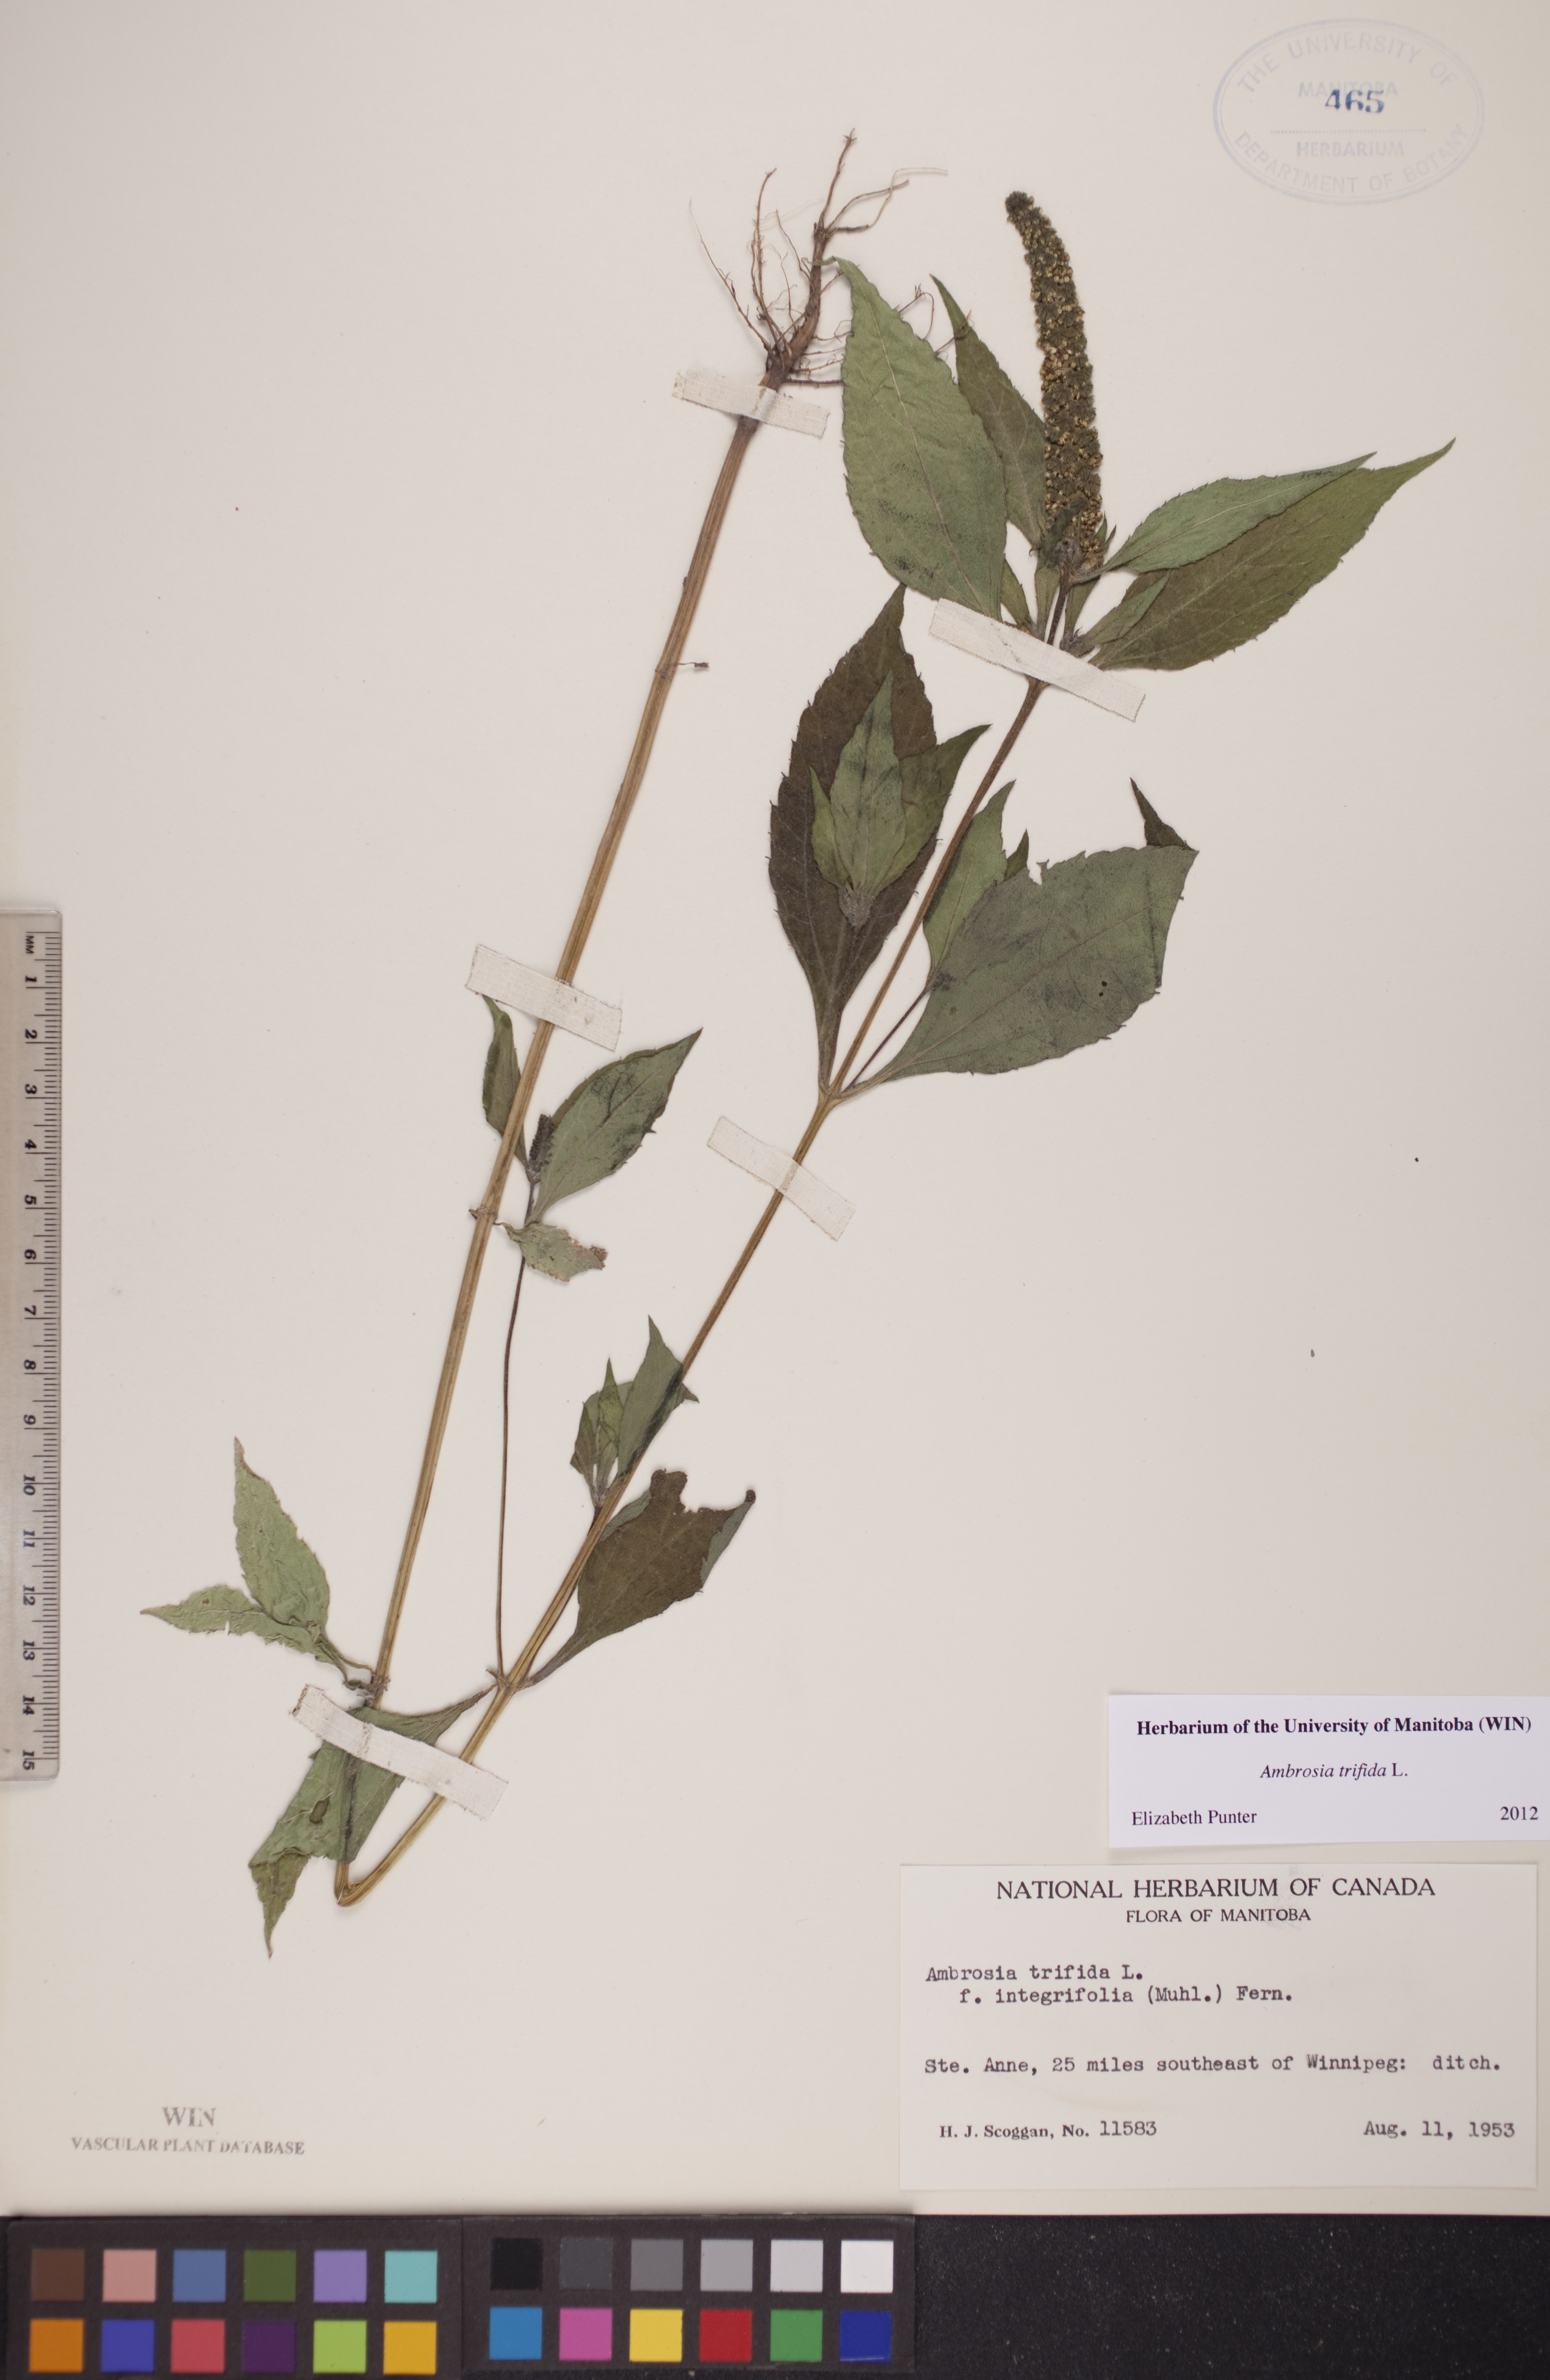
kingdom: Plantae
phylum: Tracheophyta
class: Magnoliopsida
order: Asterales
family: Asteraceae
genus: Ambrosia
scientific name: Ambrosia trifida
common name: Giant ragweed
